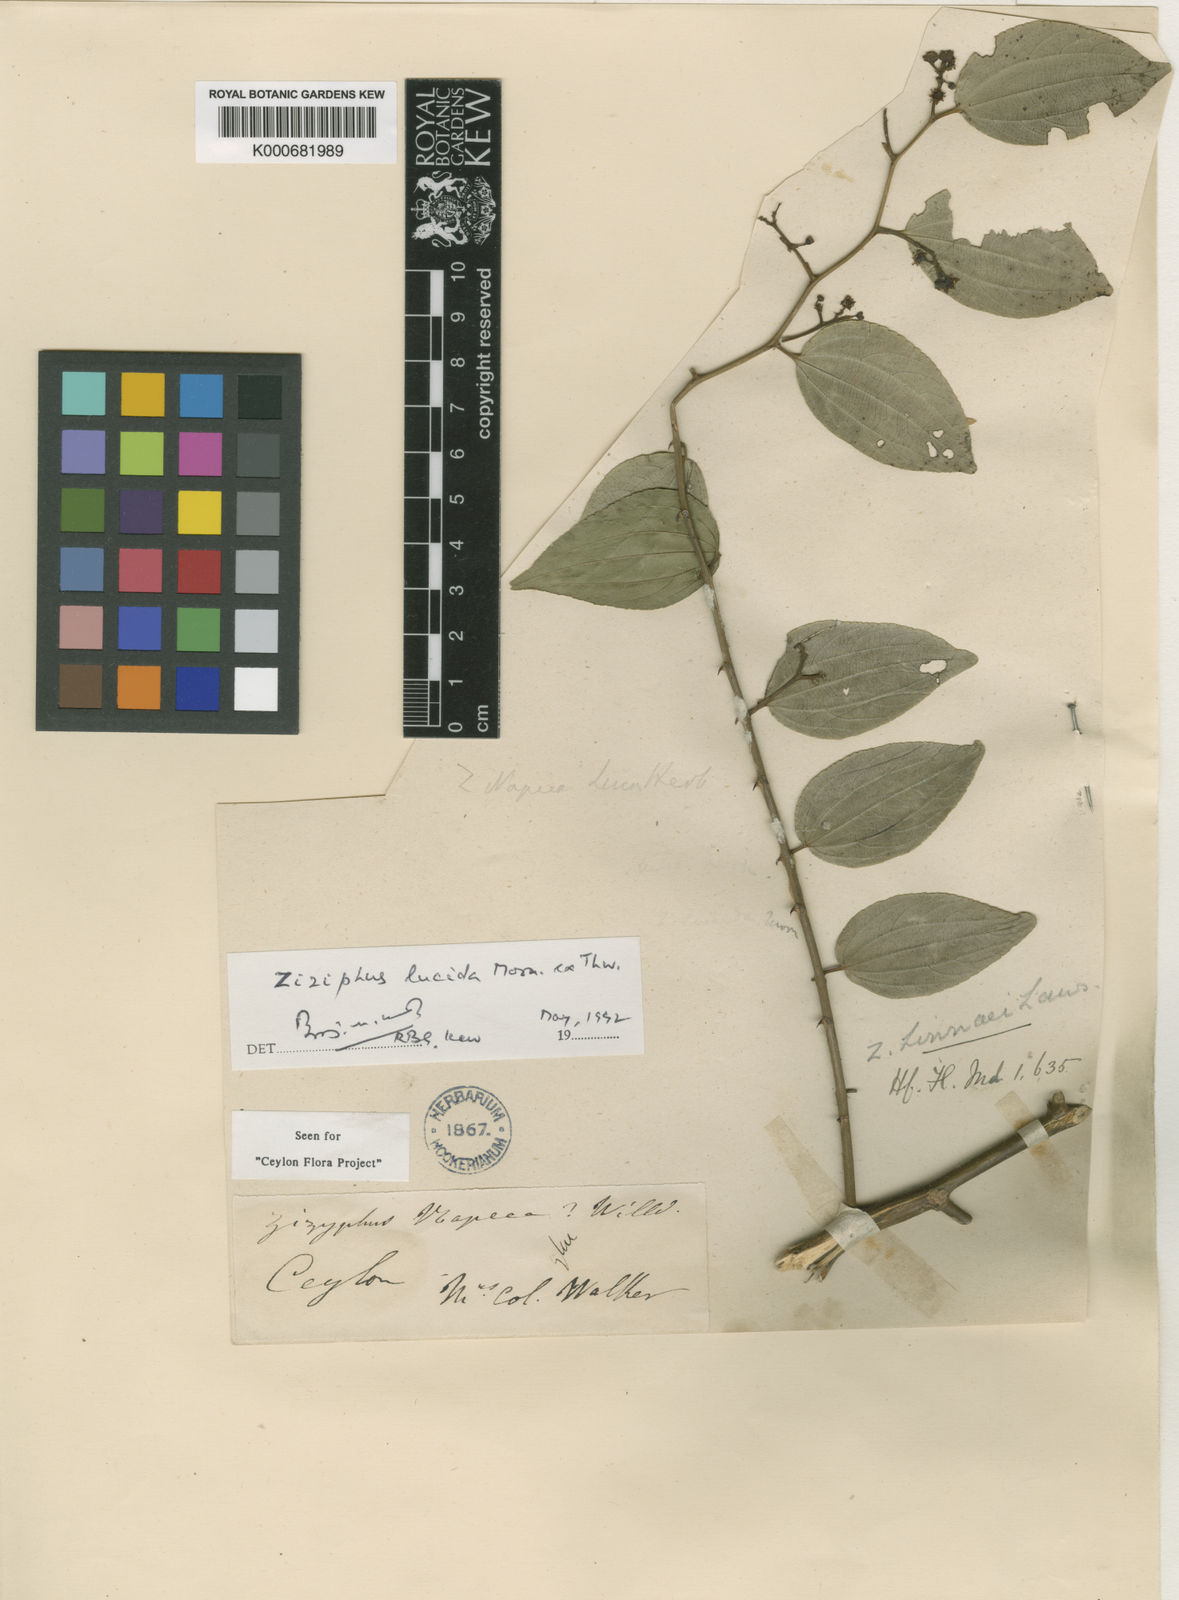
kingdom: Plantae
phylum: Tracheophyta
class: Magnoliopsida
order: Rosales
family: Rhamnaceae
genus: Ziziphus
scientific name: Ziziphus linnaei
